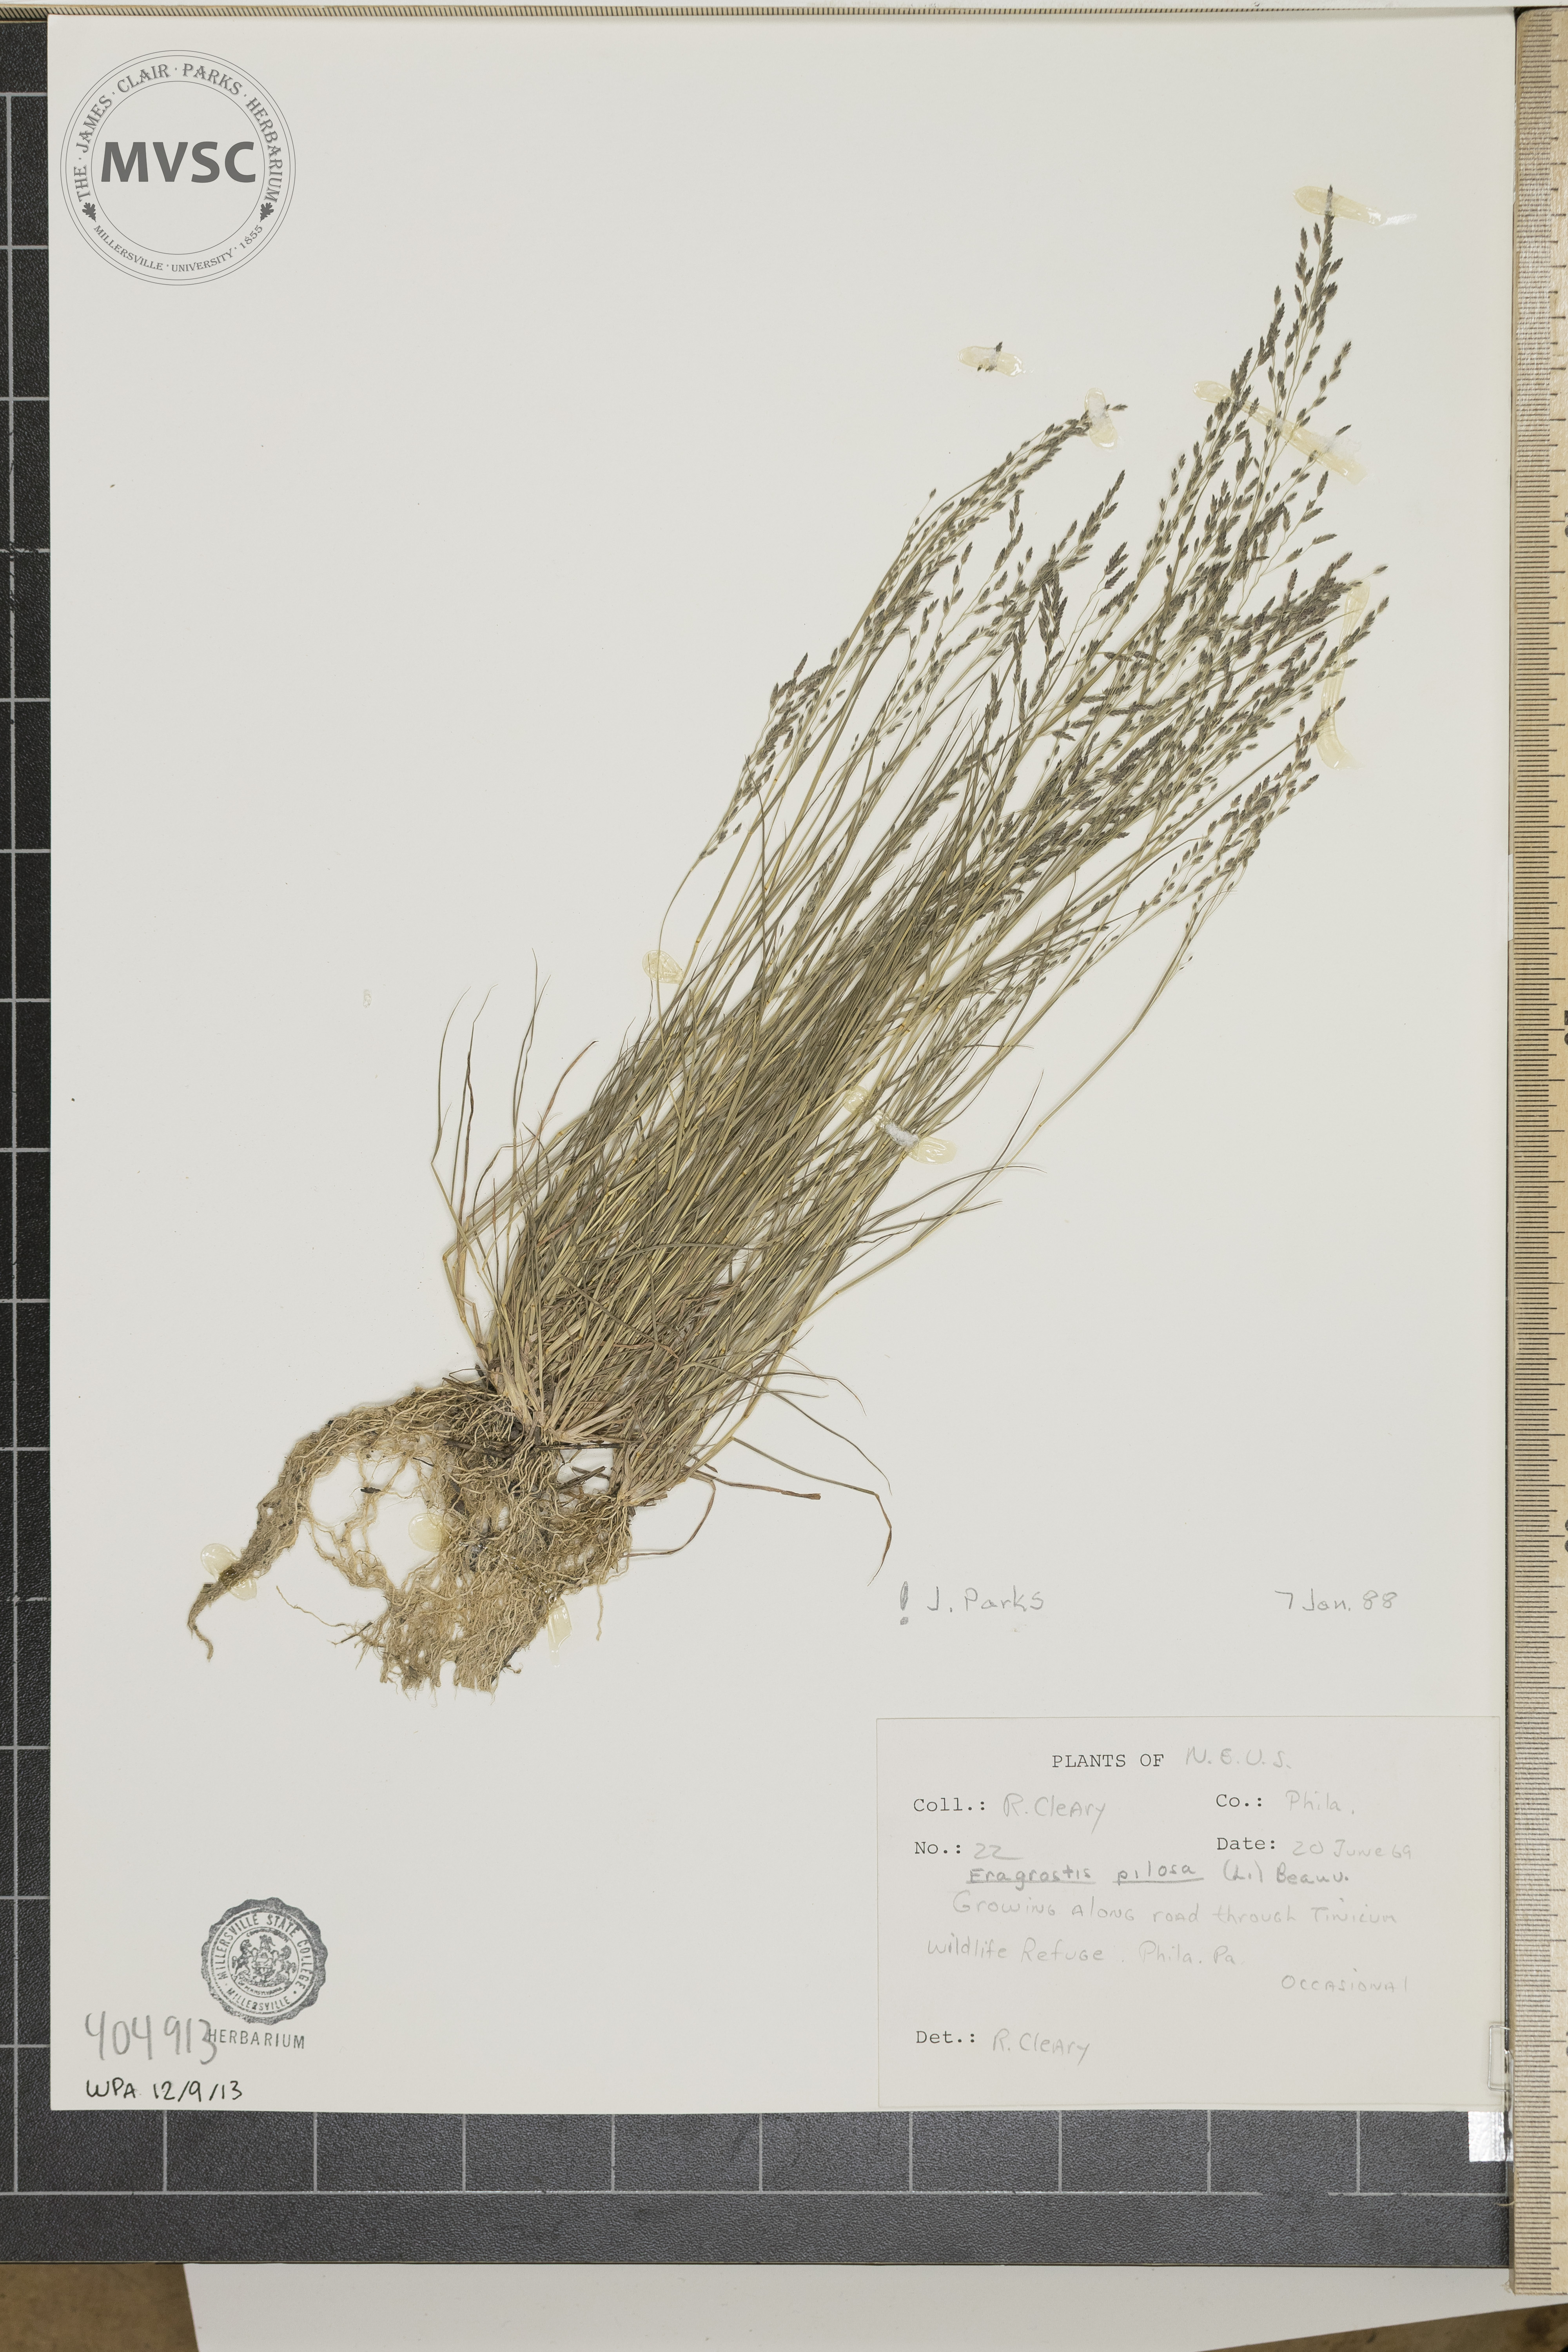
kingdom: Plantae
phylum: Tracheophyta
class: Liliopsida
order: Poales
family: Poaceae
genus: Eragrostis
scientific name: Eragrostis pilosa
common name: Indian lovegrass
